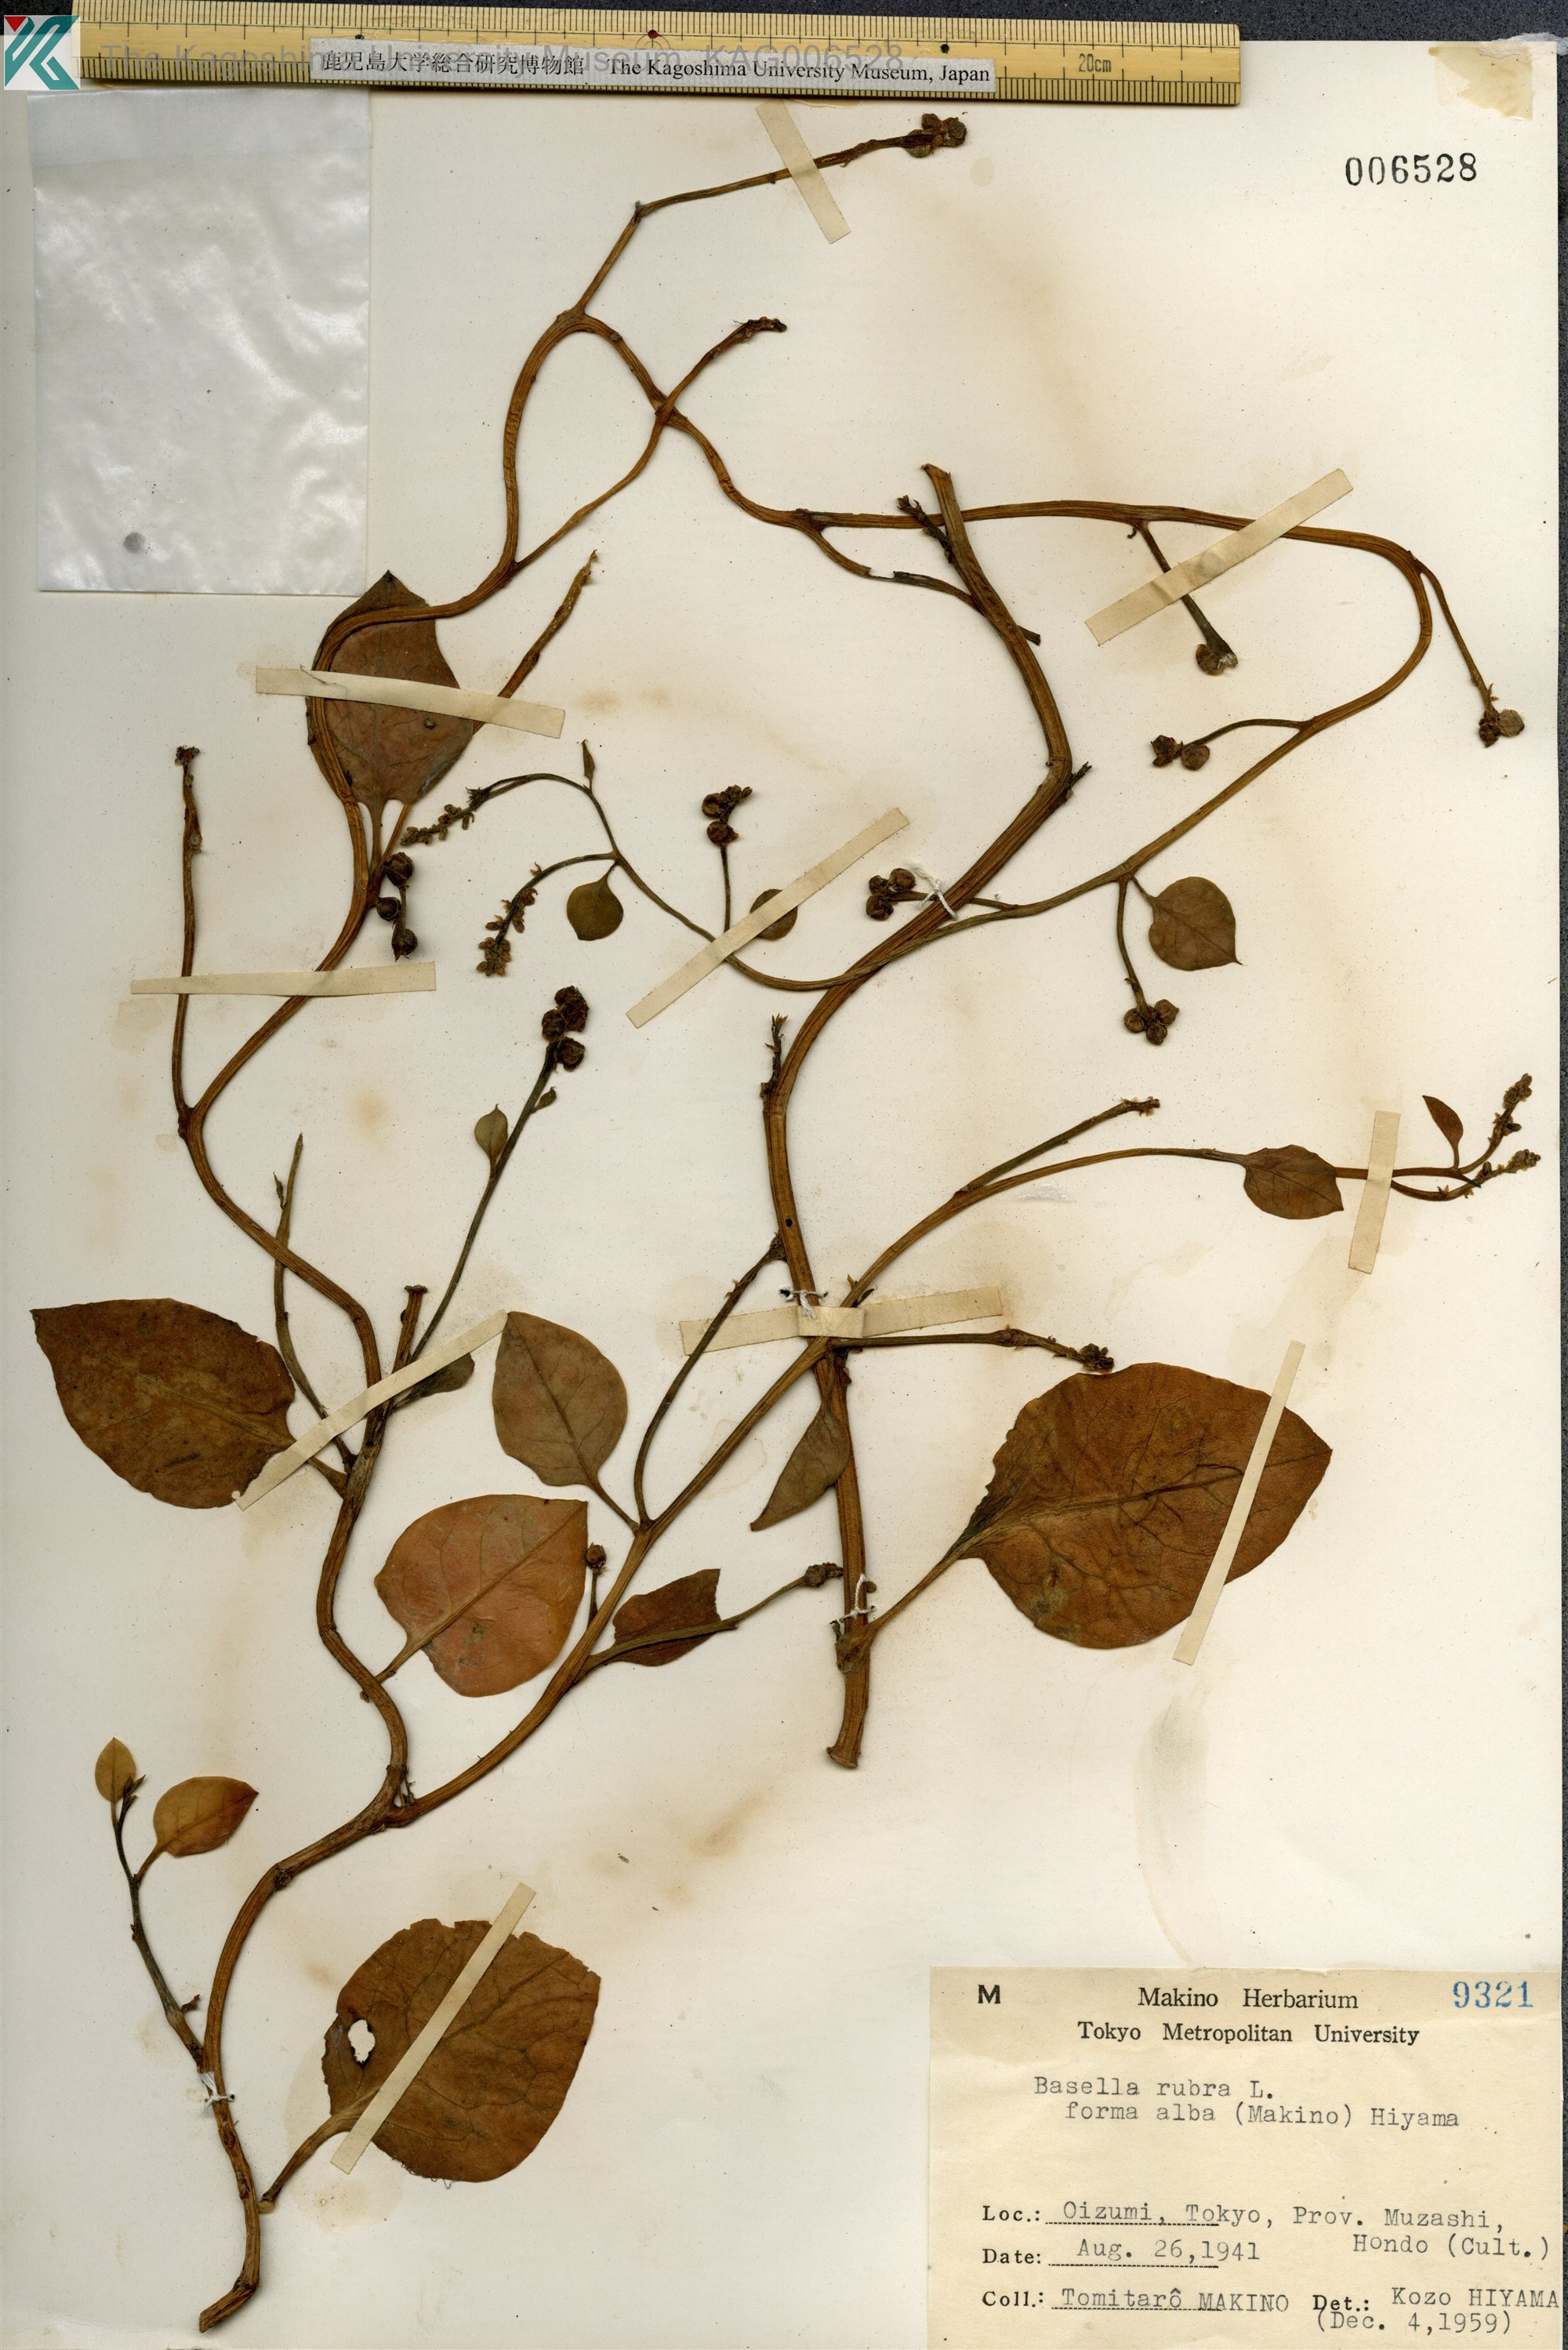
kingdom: Plantae
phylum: Tracheophyta
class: Magnoliopsida
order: Caryophyllales
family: Basellaceae
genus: Basella
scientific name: Basella alba
